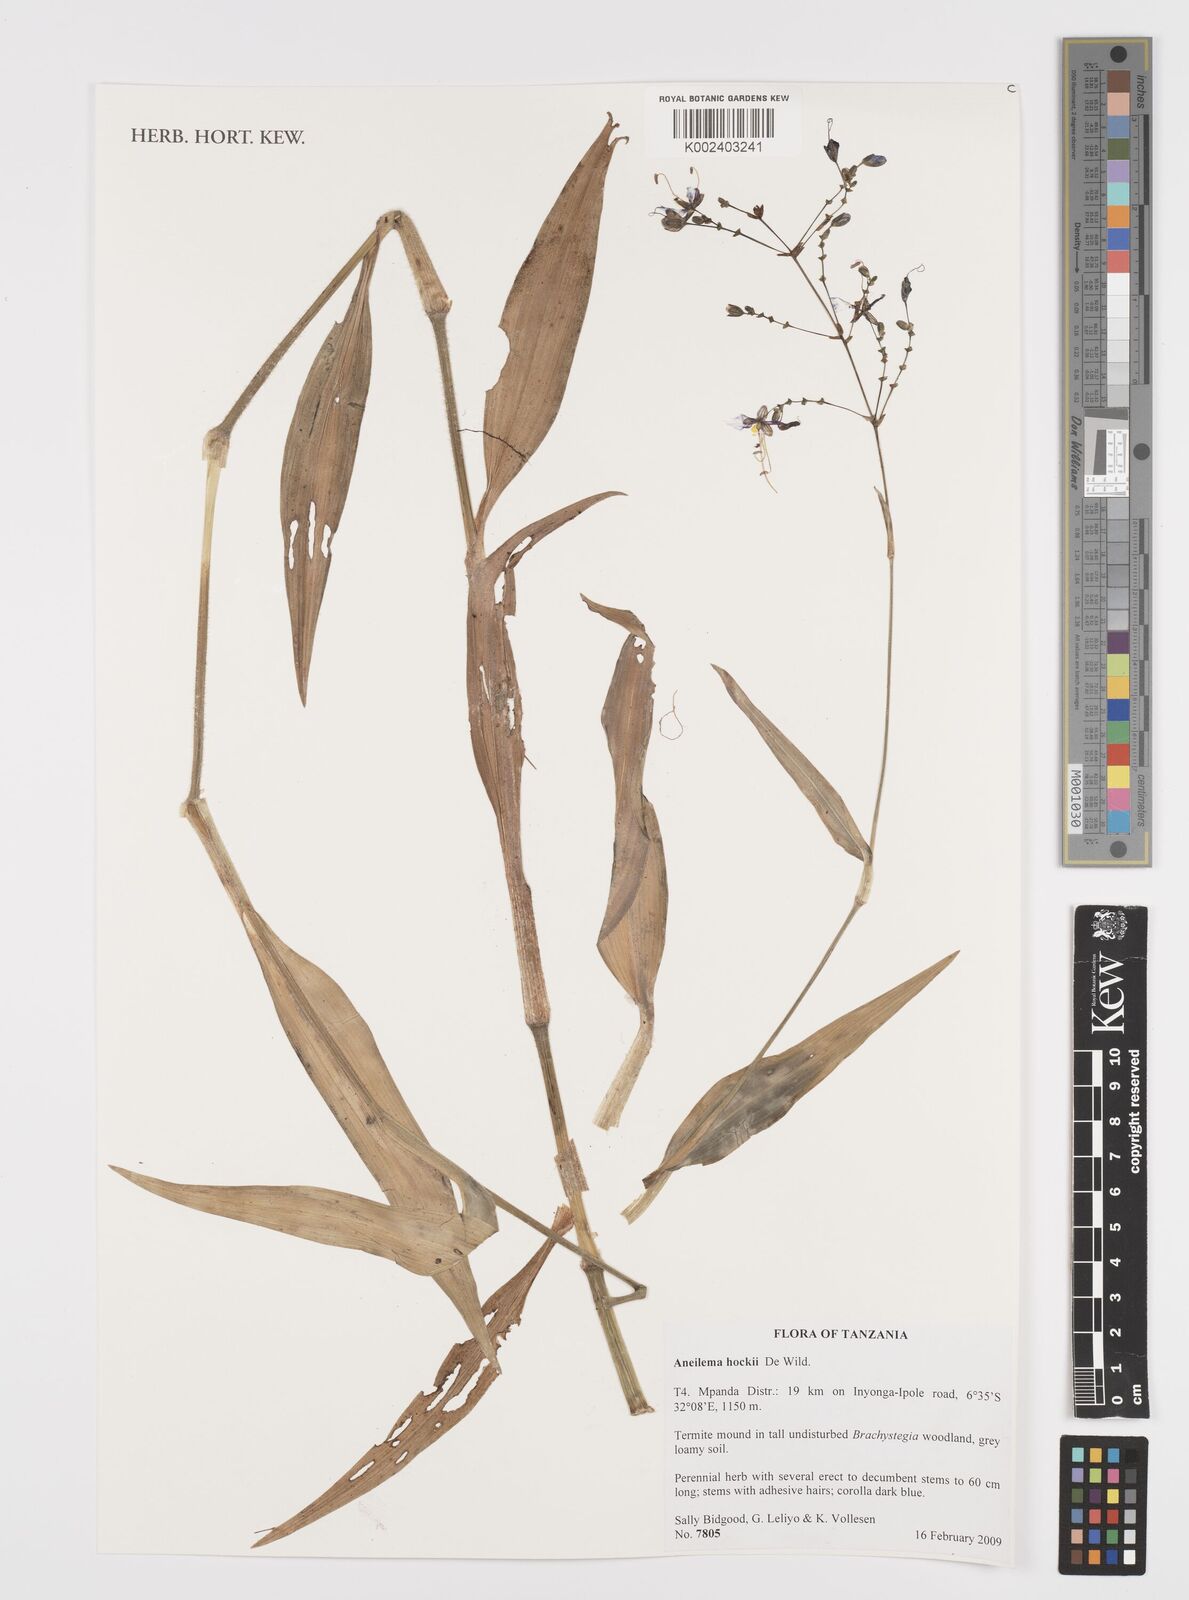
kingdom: Plantae
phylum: Tracheophyta
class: Liliopsida
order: Commelinales
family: Commelinaceae
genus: Aneilema
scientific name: Aneilema hockii
